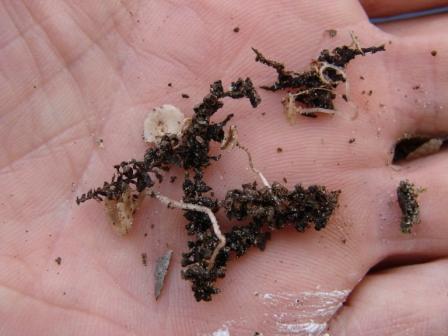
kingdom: Fungi
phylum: Ascomycota
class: Leotiomycetes
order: Helotiales
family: Sclerotiniaceae
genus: Ciboria
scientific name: Ciboria caucus
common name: rakle-knoldskive
